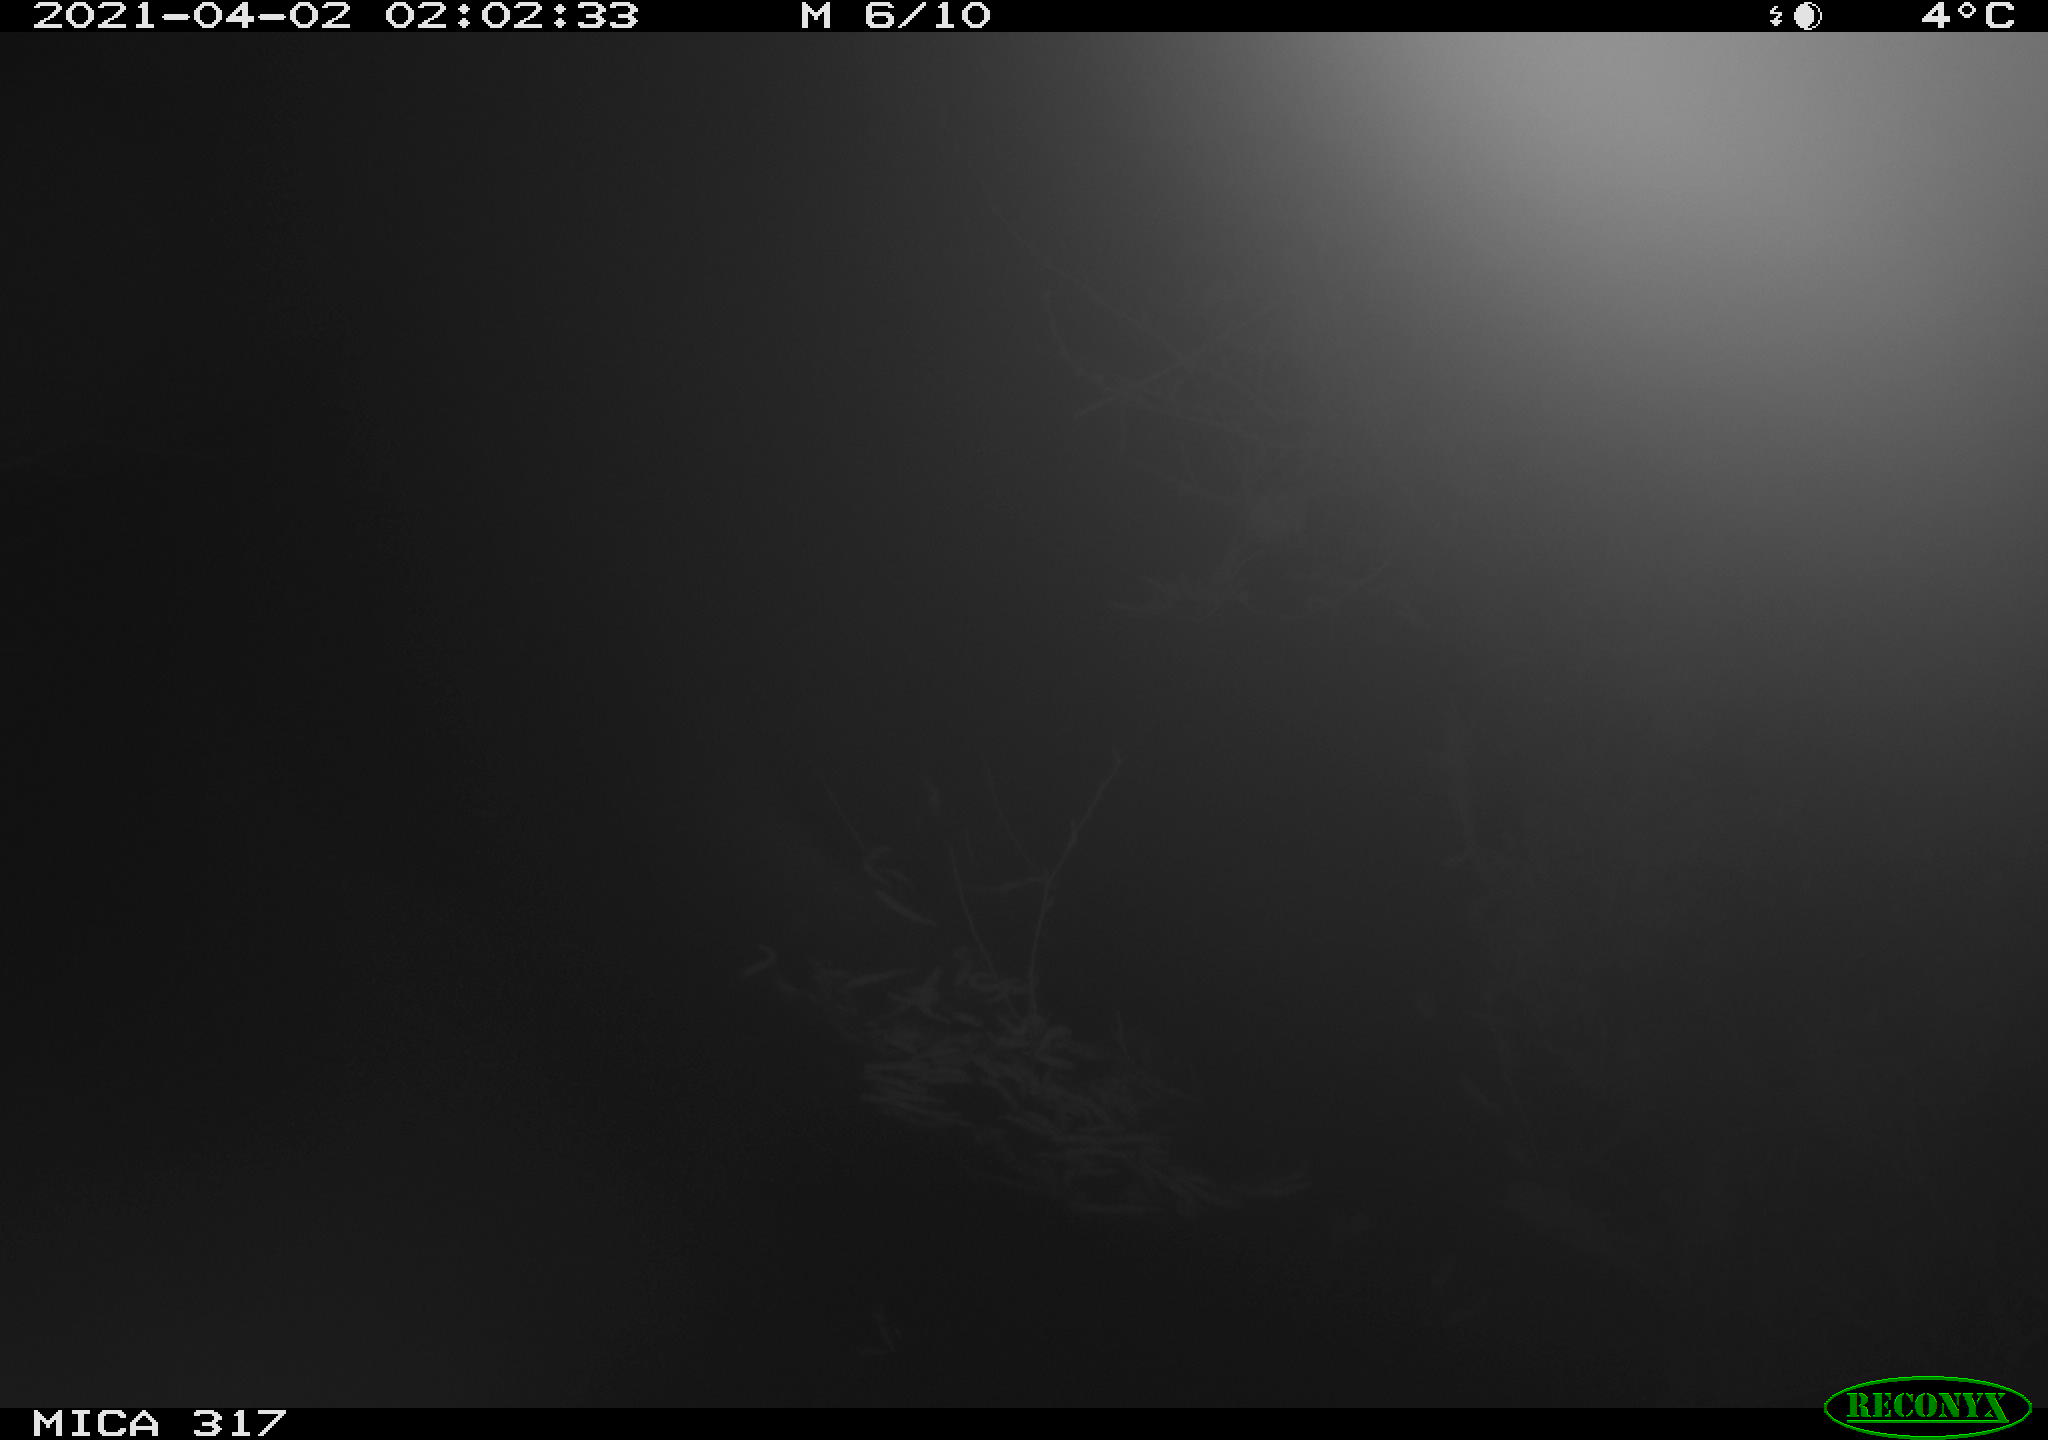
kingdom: Animalia
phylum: Chordata
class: Aves
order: Anseriformes
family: Anatidae
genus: Anas
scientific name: Anas platyrhynchos
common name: Mallard
